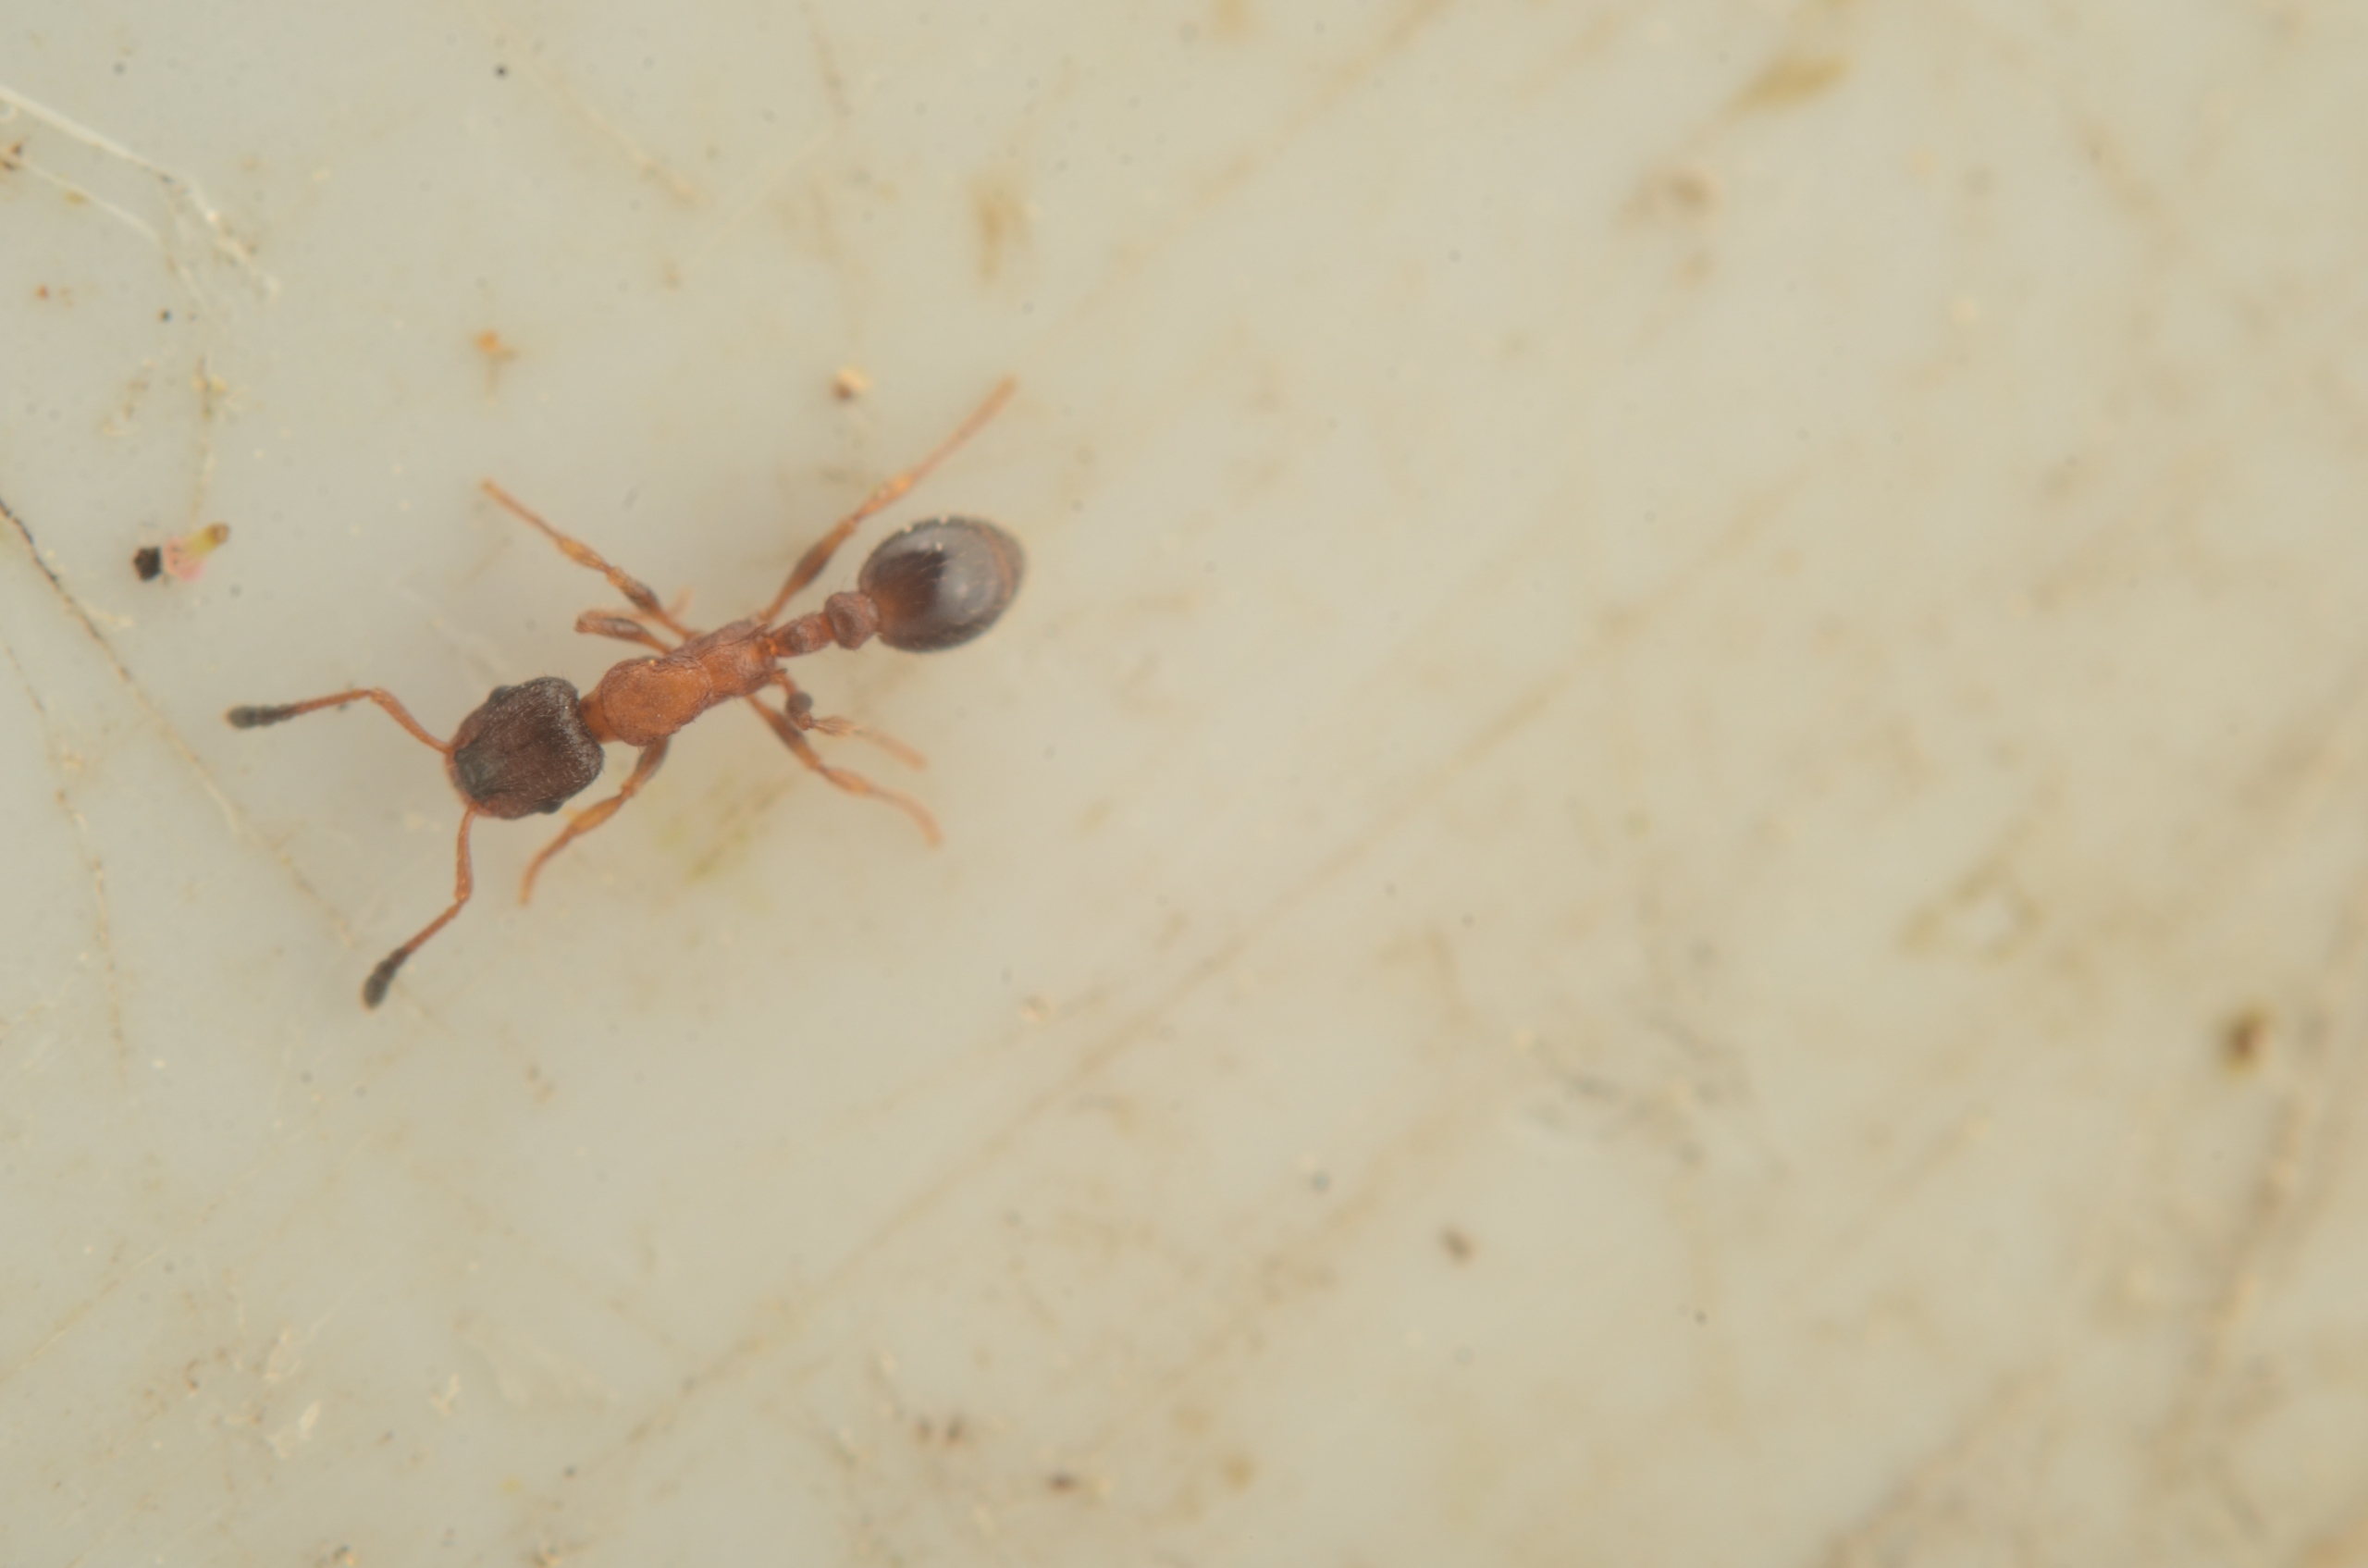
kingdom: Animalia
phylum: Arthropoda
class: Insecta
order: Hymenoptera
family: Formicidae
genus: Leptothorax
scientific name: Leptothorax acervorum
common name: Stor barkmyre
